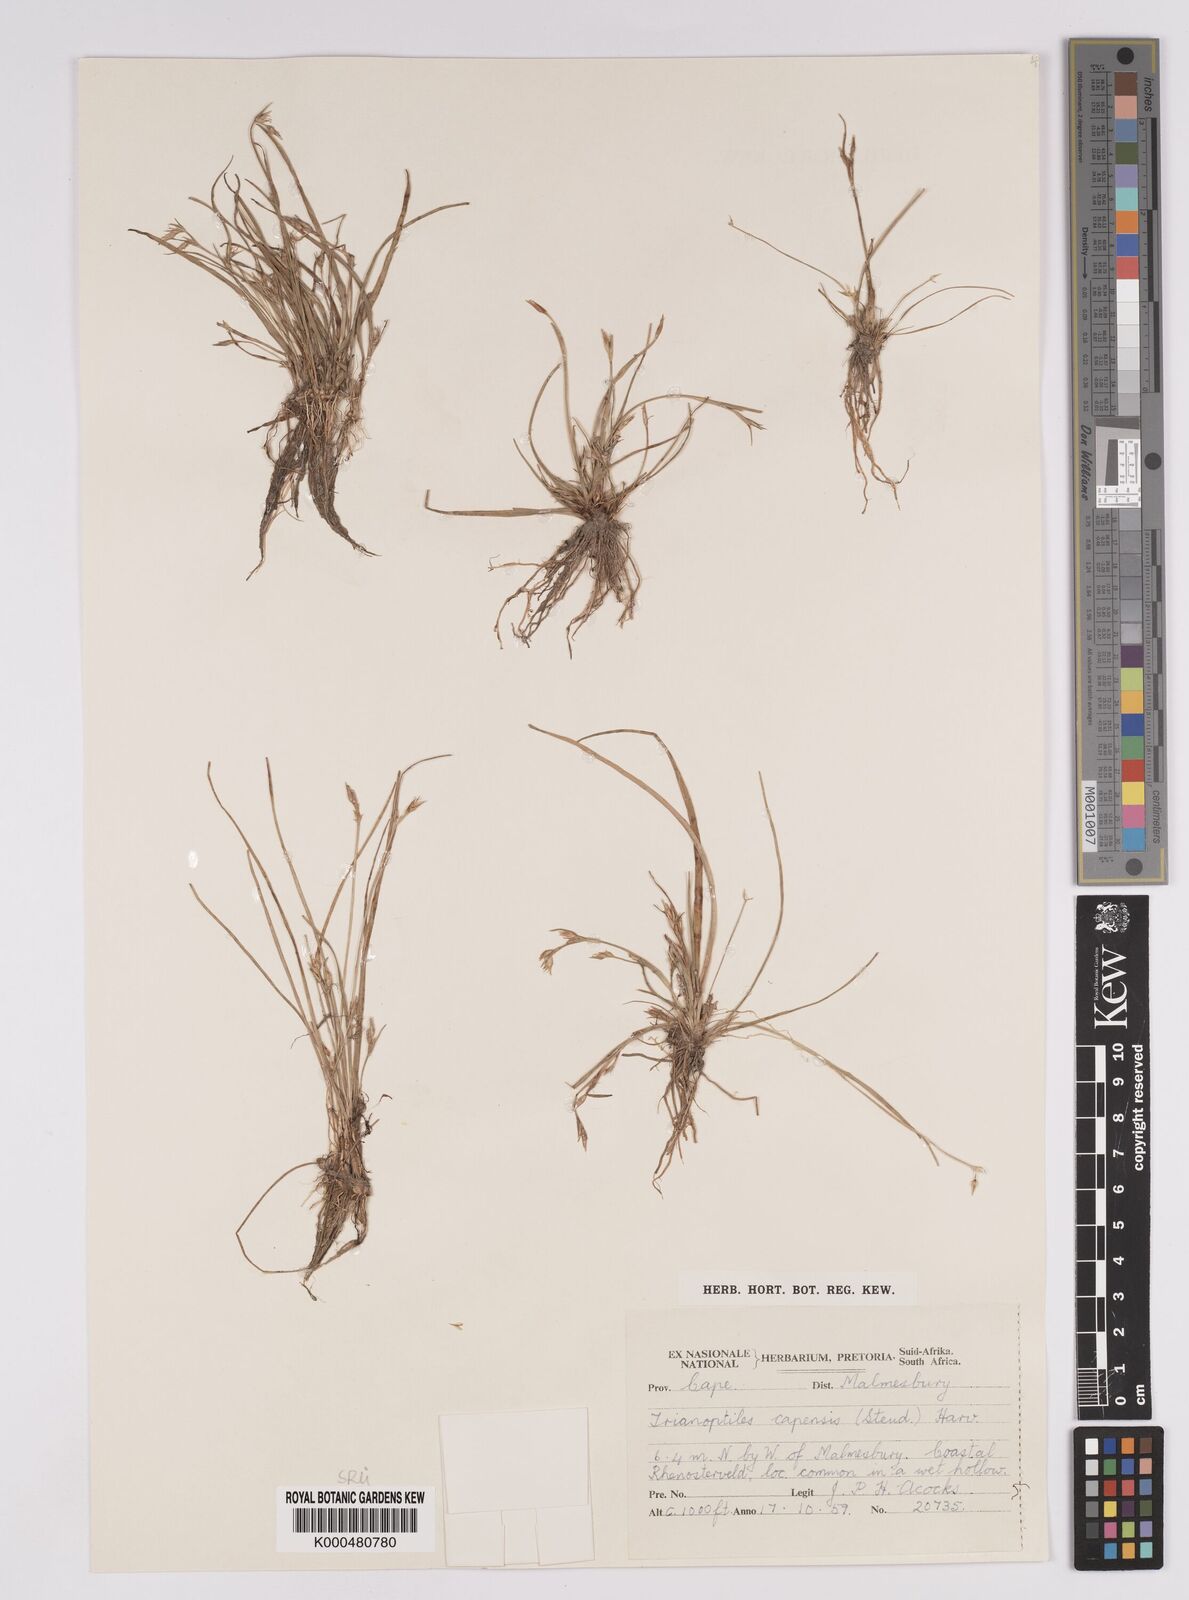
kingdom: Plantae
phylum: Tracheophyta
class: Liliopsida
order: Poales
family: Cyperaceae
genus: Trianoptiles
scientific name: Trianoptiles capensis
